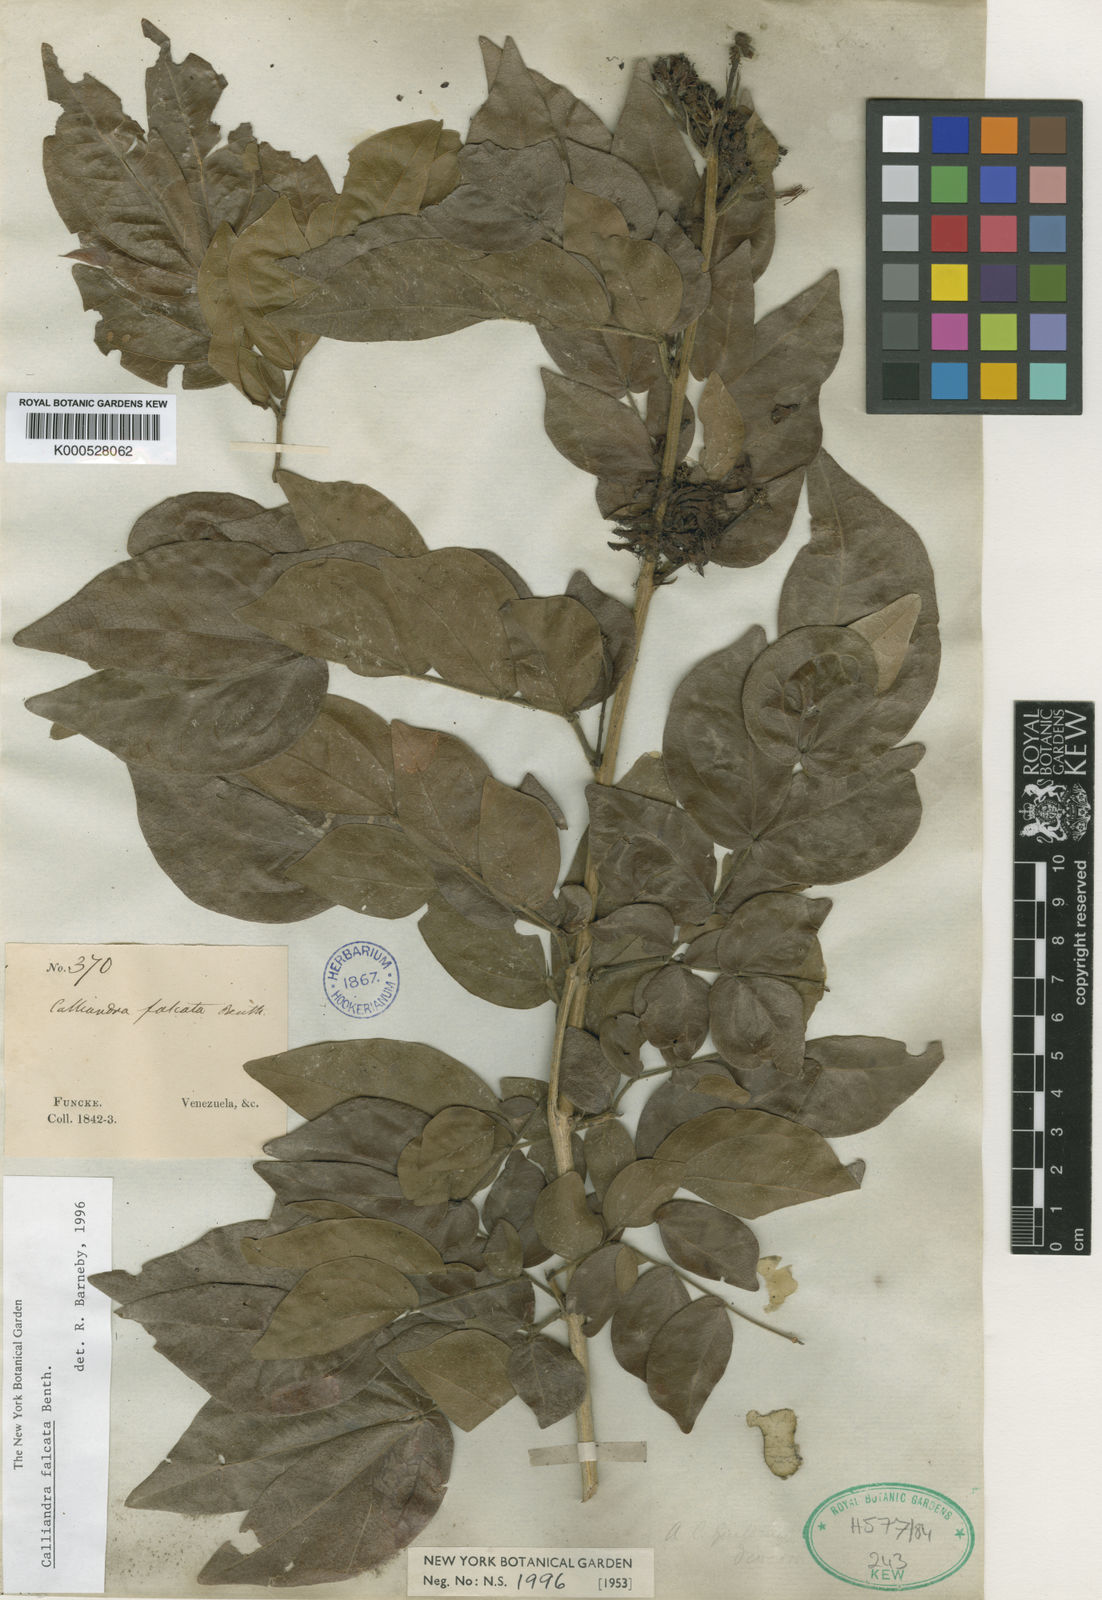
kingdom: Plantae
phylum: Tracheophyta
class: Magnoliopsida
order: Fabales
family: Fabaceae
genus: Calliandra
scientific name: Calliandra falcata
